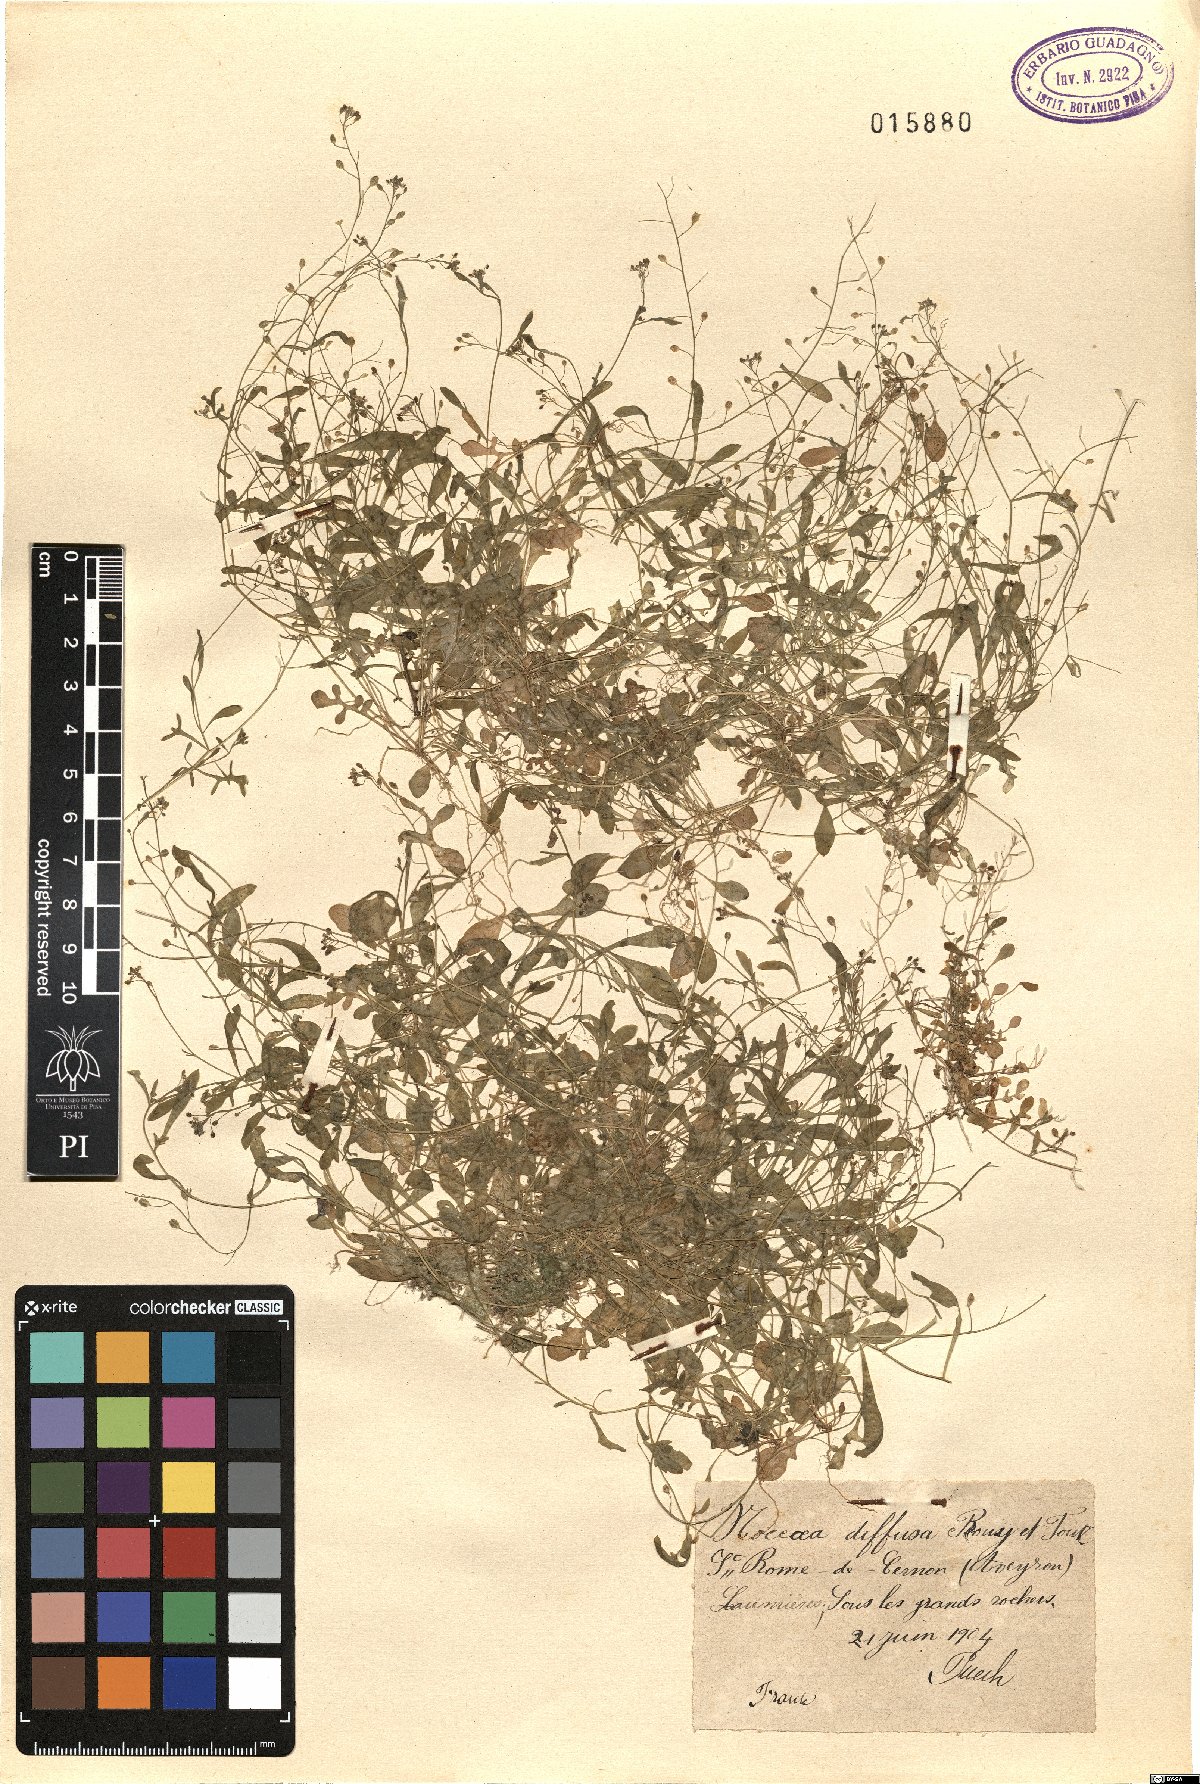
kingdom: Plantae
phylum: Tracheophyta
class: Magnoliopsida
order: Brassicales
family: Brassicaceae
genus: Hornungia
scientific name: Hornungia procumbens
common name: Oval purse
